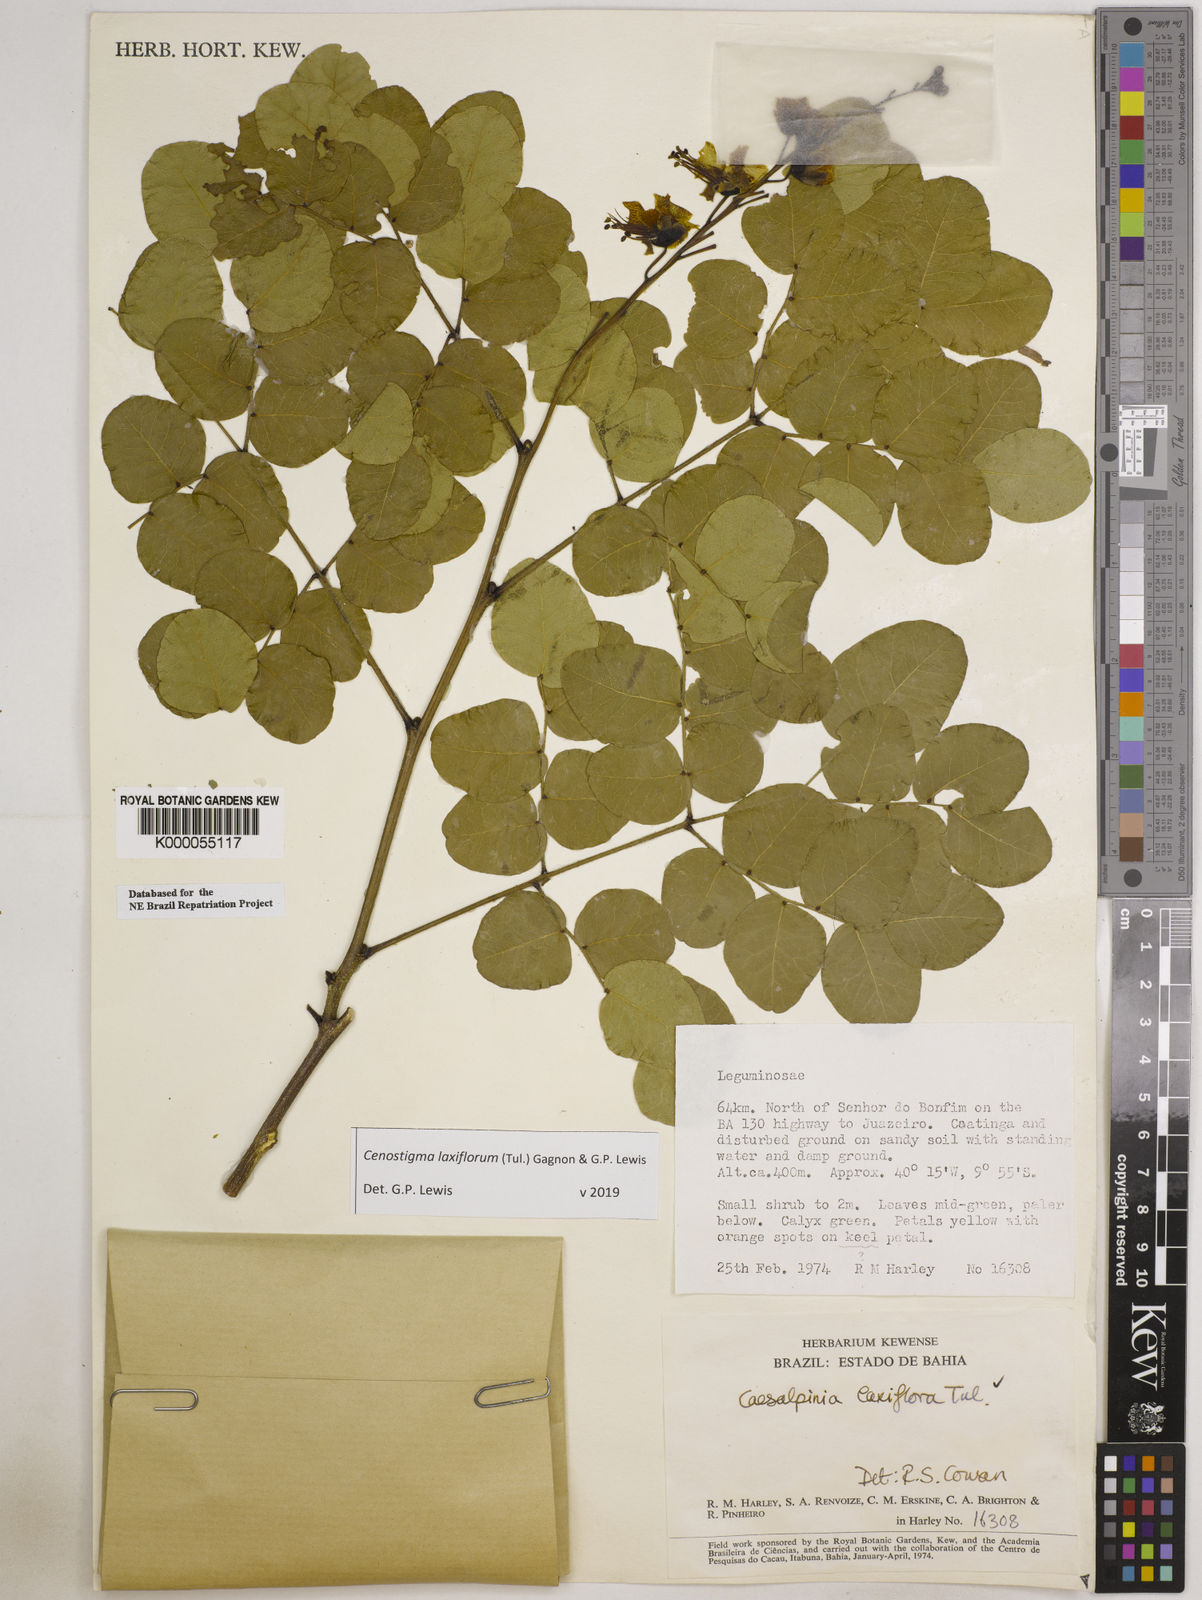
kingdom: Plantae
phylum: Tracheophyta
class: Magnoliopsida
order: Fabales
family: Fabaceae
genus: Cenostigma
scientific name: Cenostigma laxiflorum
